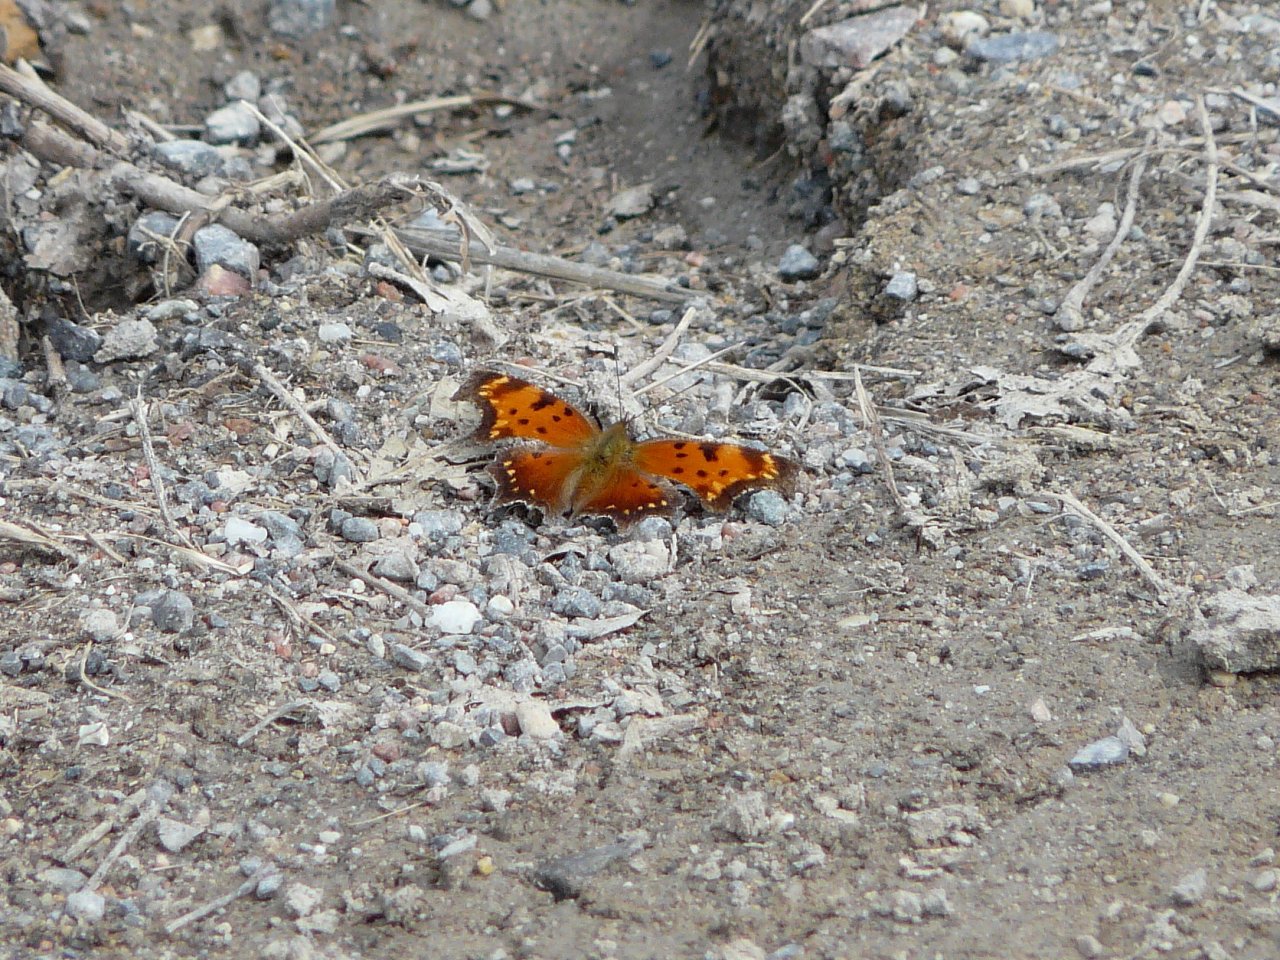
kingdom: Animalia
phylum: Arthropoda
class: Insecta
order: Lepidoptera
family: Nymphalidae
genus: Polygonia
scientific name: Polygonia progne
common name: Gray Comma
